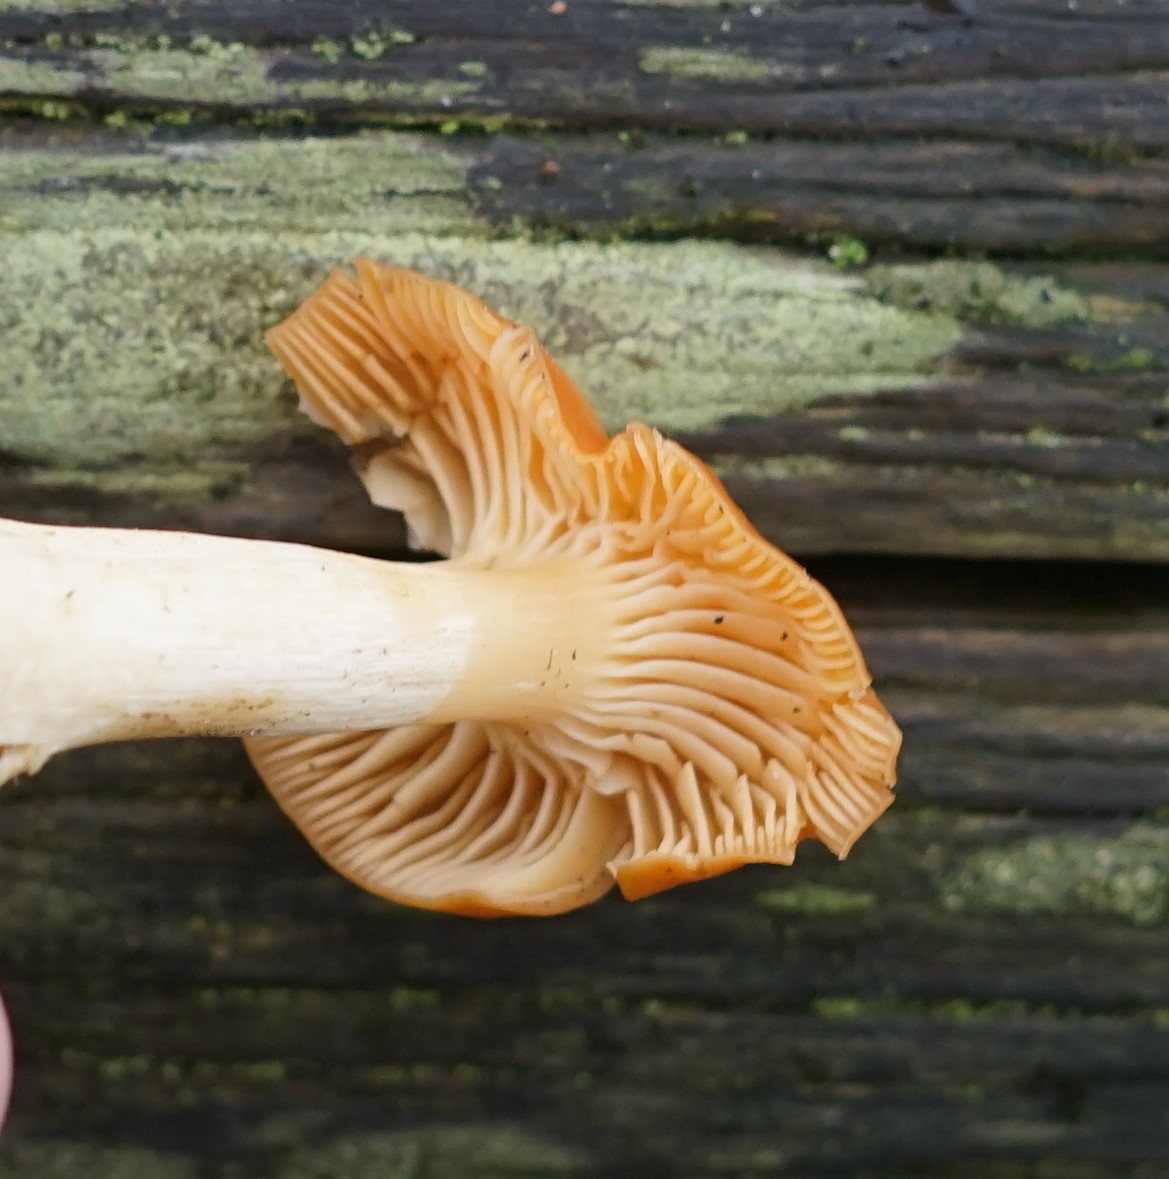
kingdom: Fungi
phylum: Basidiomycota
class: Agaricomycetes
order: Agaricales
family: Hygrophoraceae
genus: Cuphophyllus
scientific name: Cuphophyllus pratensis
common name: eng-vokshat
